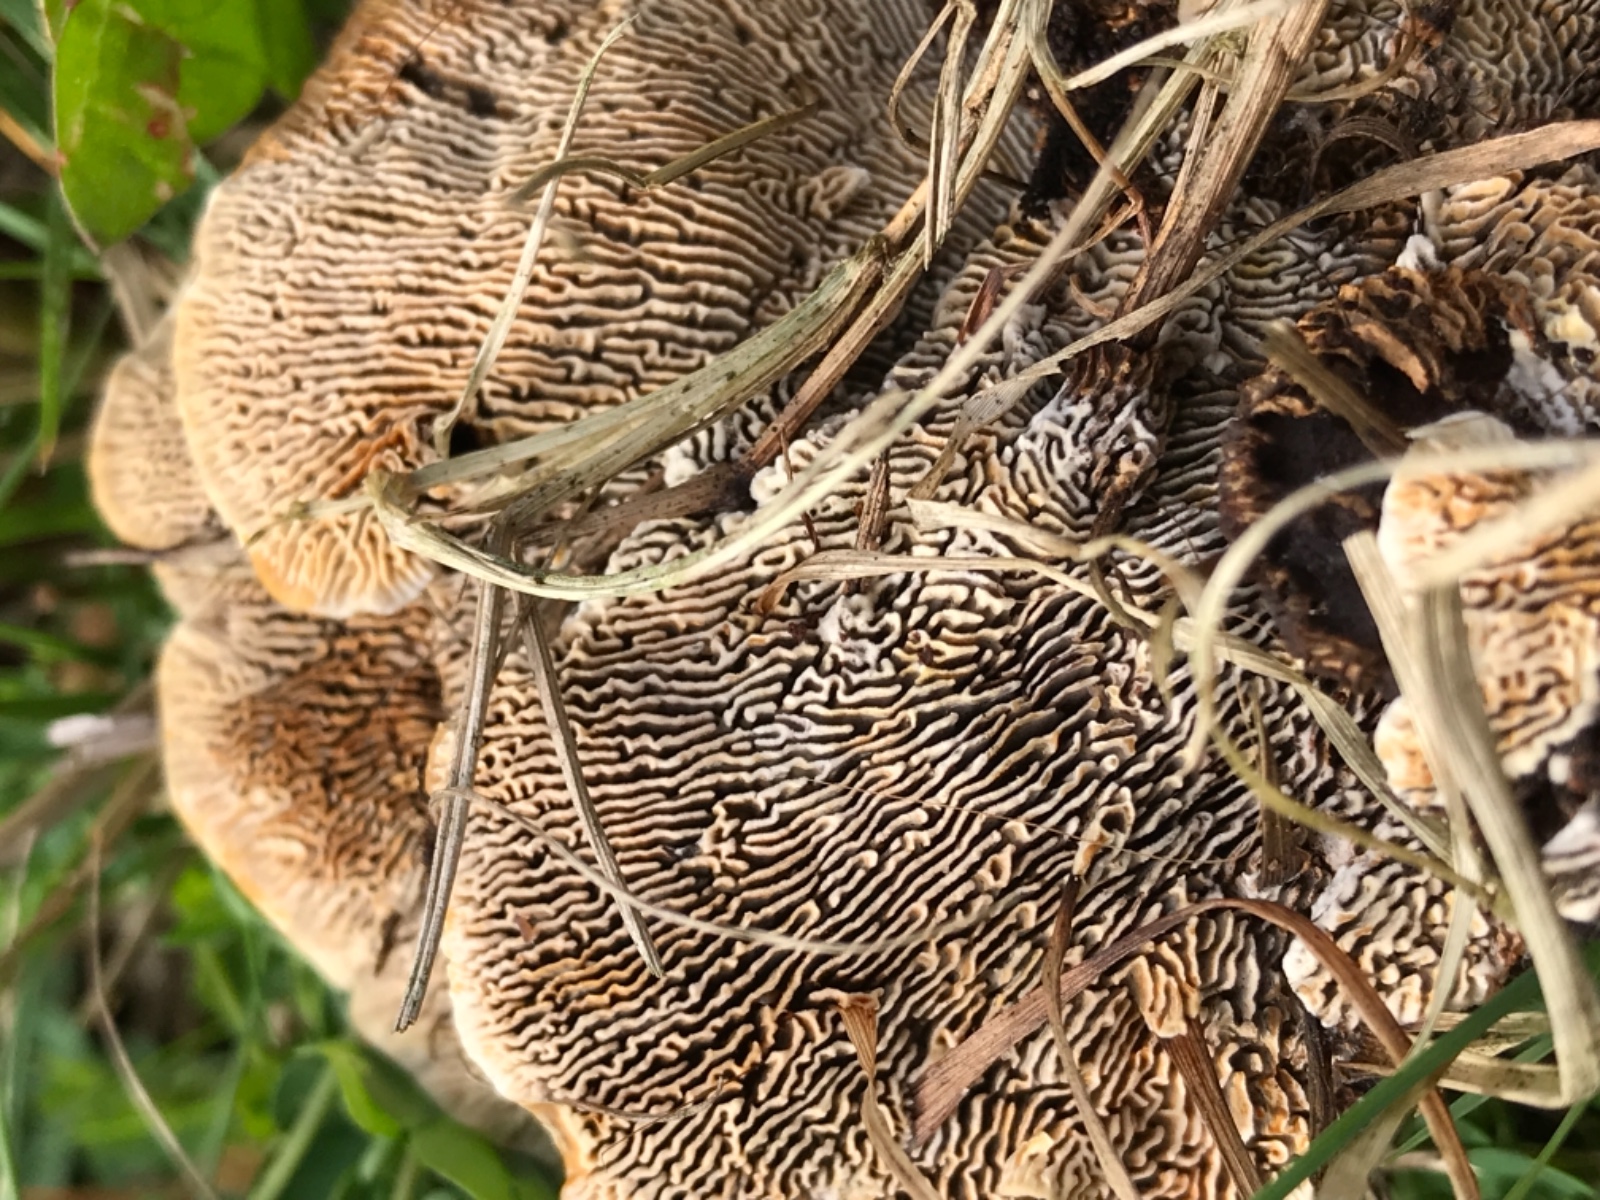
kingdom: Fungi
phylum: Basidiomycota
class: Agaricomycetes
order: Gloeophyllales
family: Gloeophyllaceae
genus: Gloeophyllum
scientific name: Gloeophyllum sepiarium
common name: fyrre-korkhat
